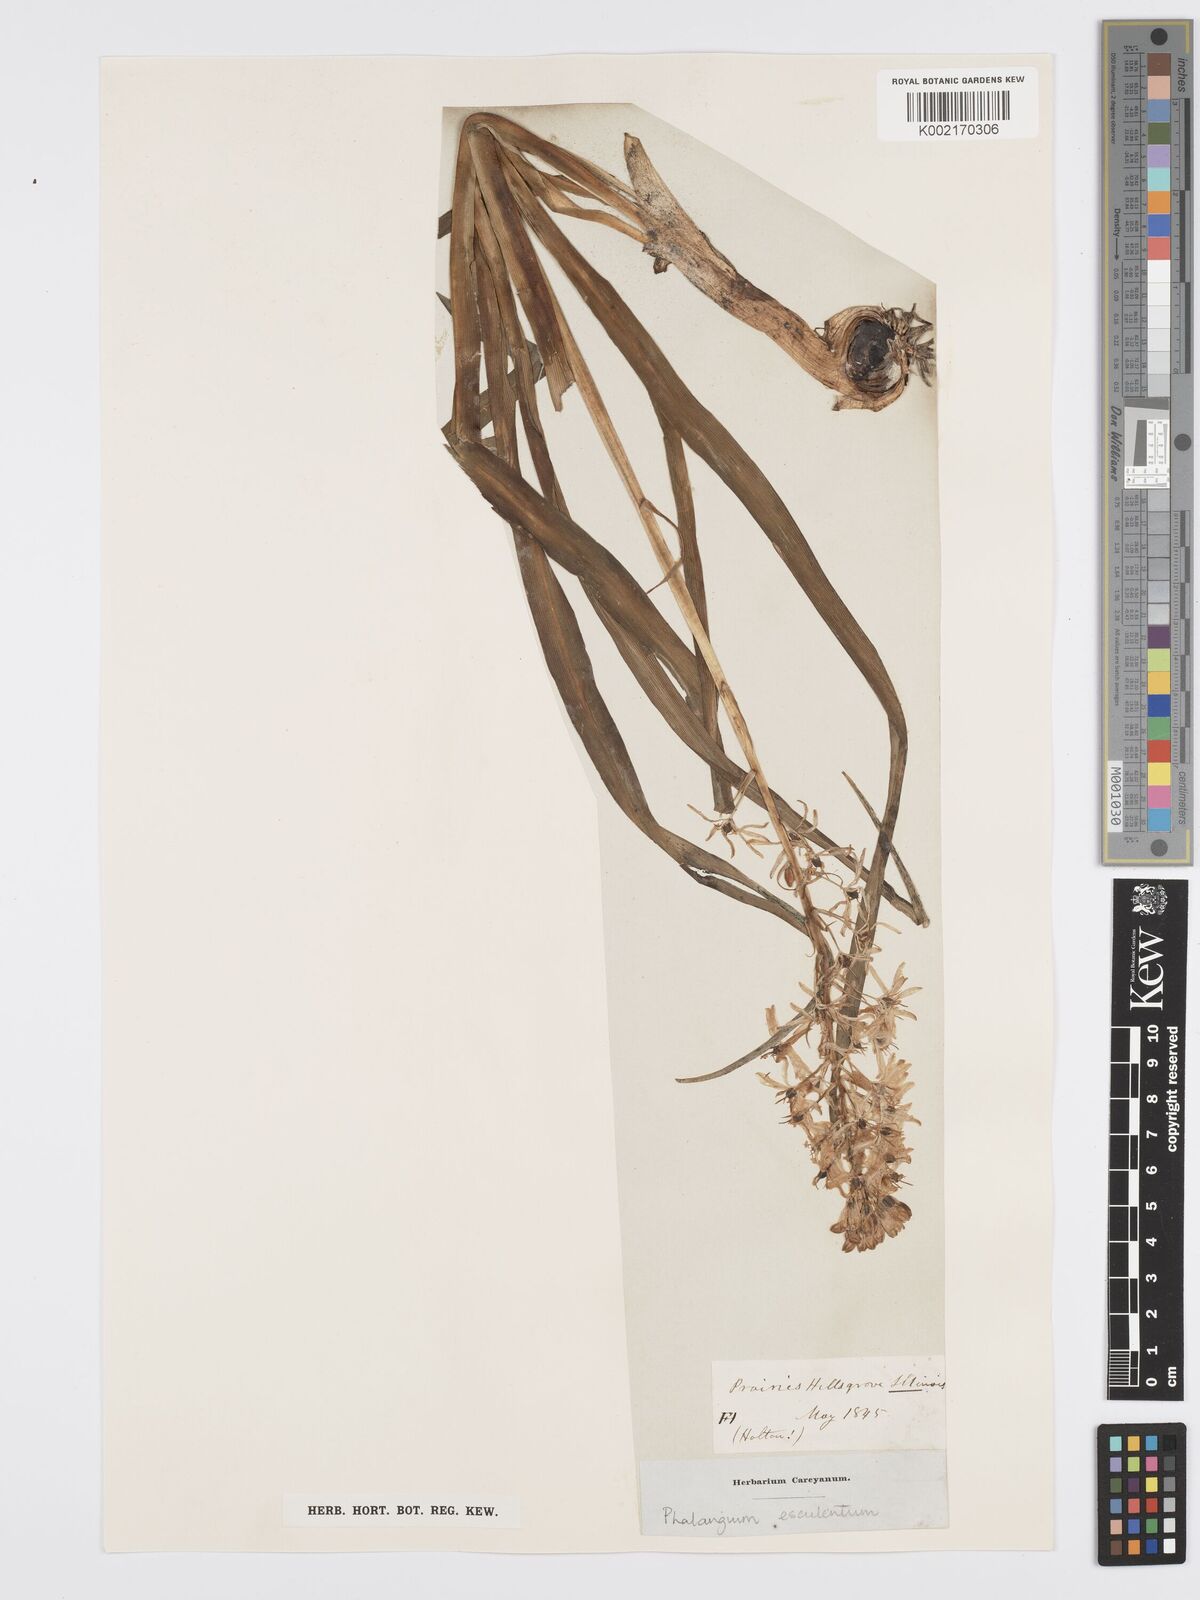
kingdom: Plantae
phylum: Tracheophyta
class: Liliopsida
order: Asparagales
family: Asparagaceae
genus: Camassia
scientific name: Camassia scilloides
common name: Wild hyacinth
